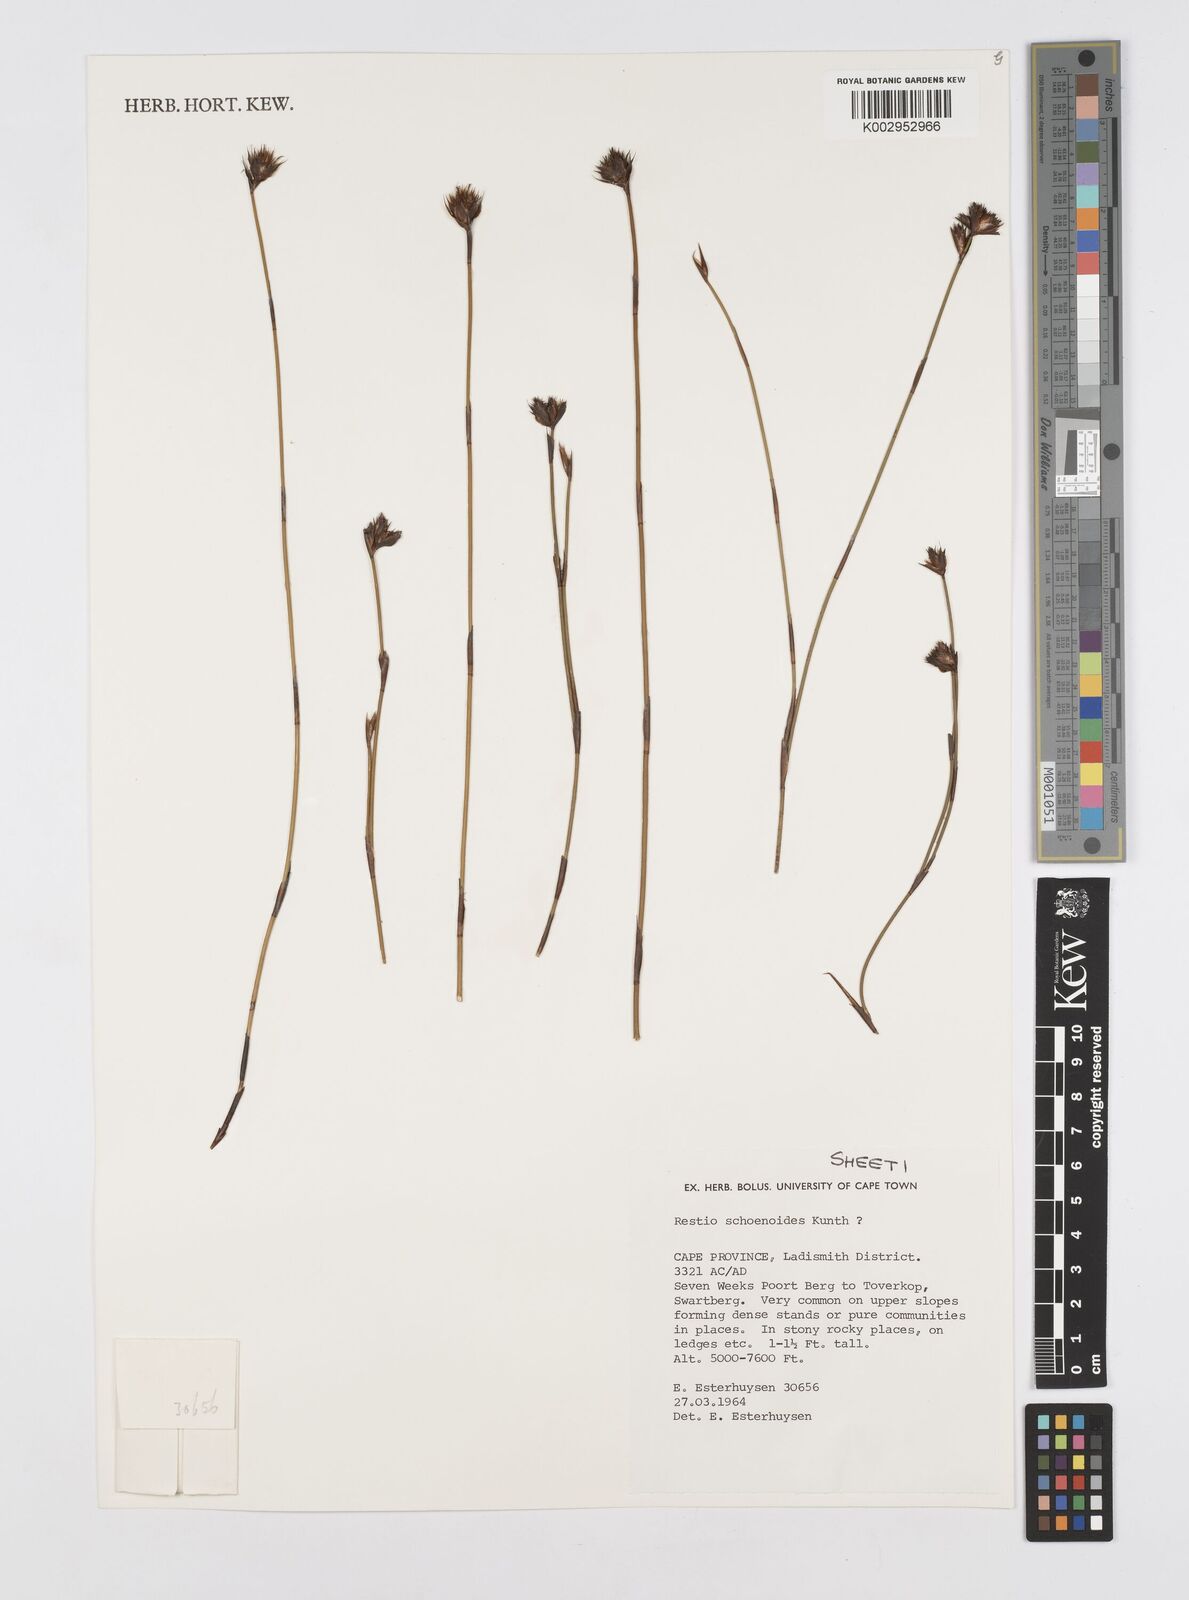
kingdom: Plantae
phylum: Tracheophyta
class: Liliopsida
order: Poales
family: Restionaceae
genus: Restio
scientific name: Restio schoenoides
